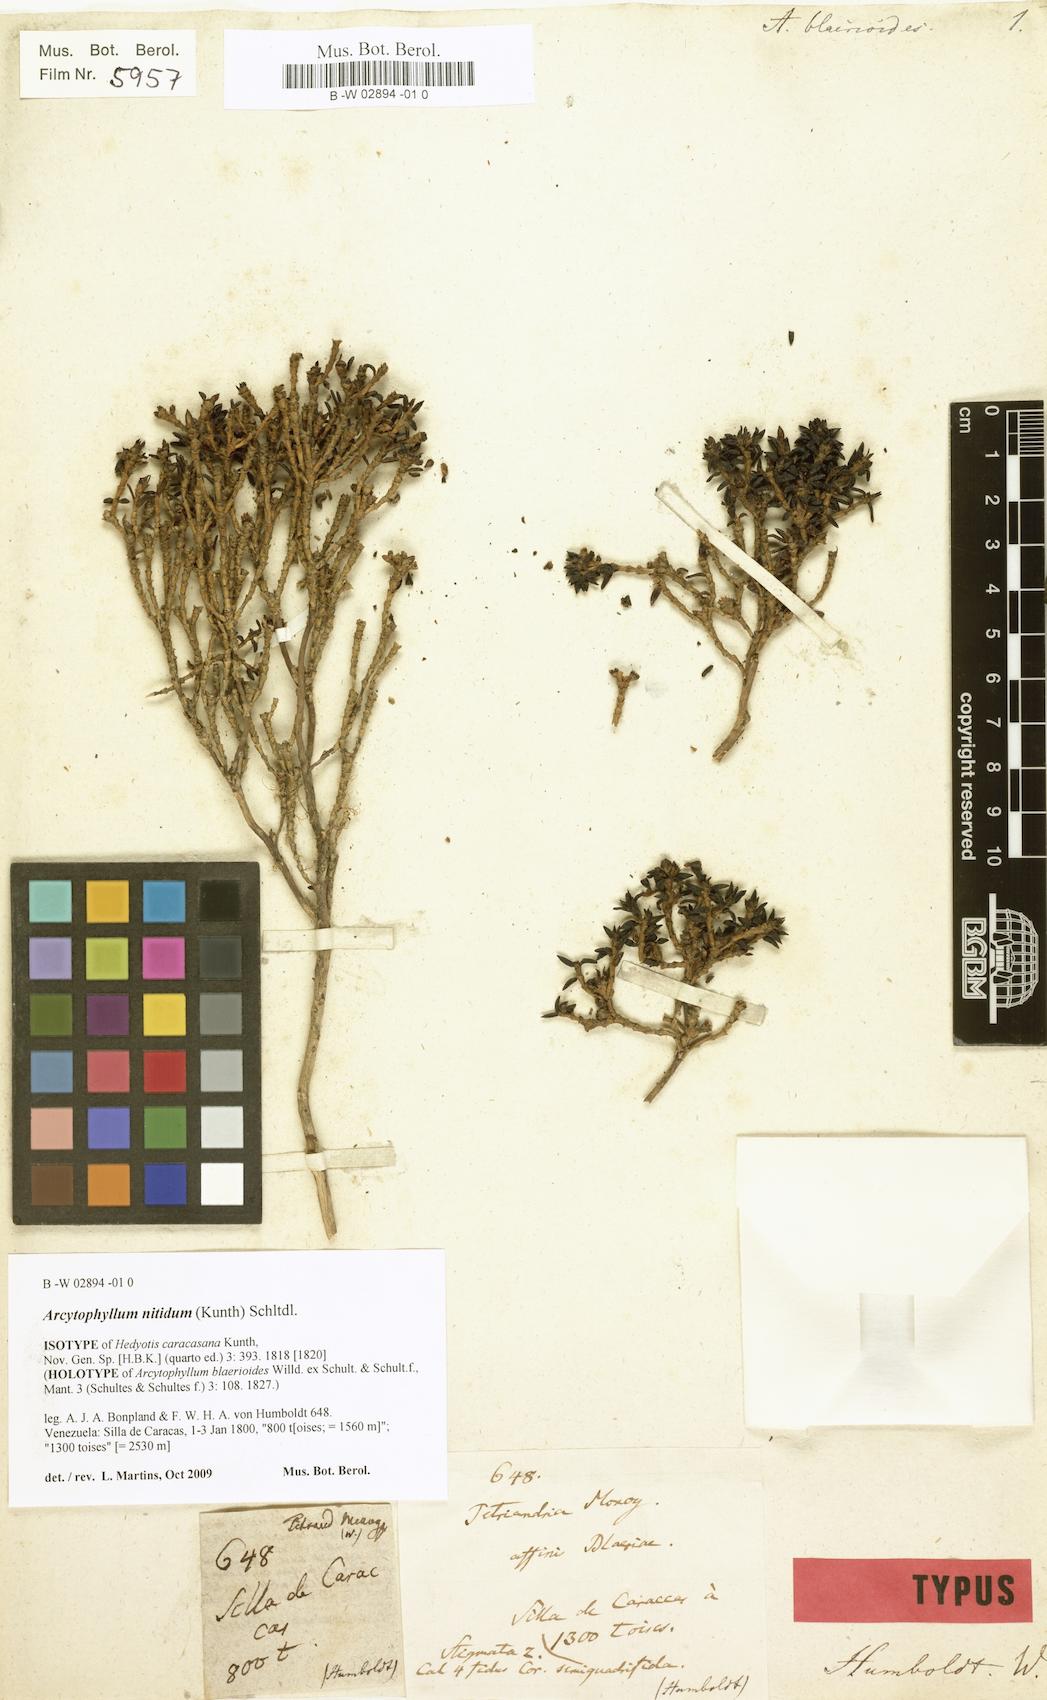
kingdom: Plantae
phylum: Tracheophyta
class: Magnoliopsida
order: Gentianales
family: Rubiaceae
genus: Arcytophyllum
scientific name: Arcytophyllum nitidum
